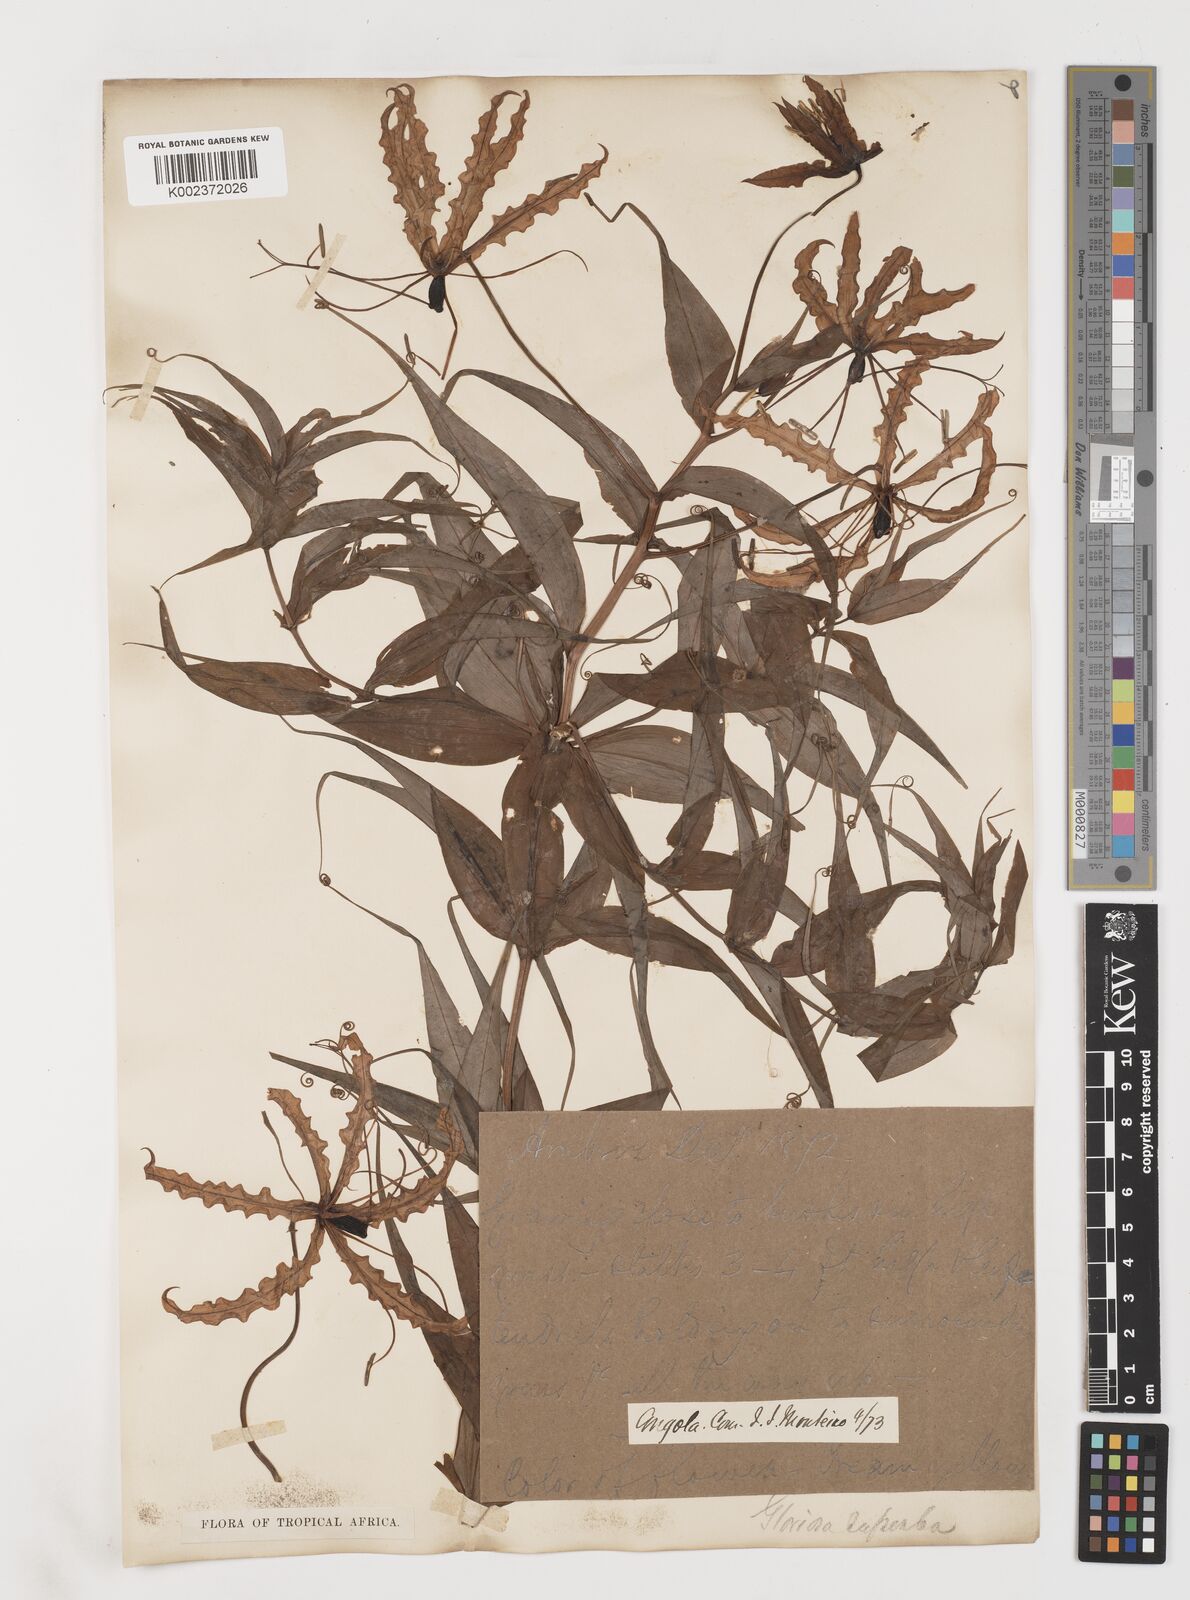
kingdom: Plantae
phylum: Tracheophyta
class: Liliopsida
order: Liliales
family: Colchicaceae
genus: Gloriosa
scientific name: Gloriosa superba
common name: Flame lily
